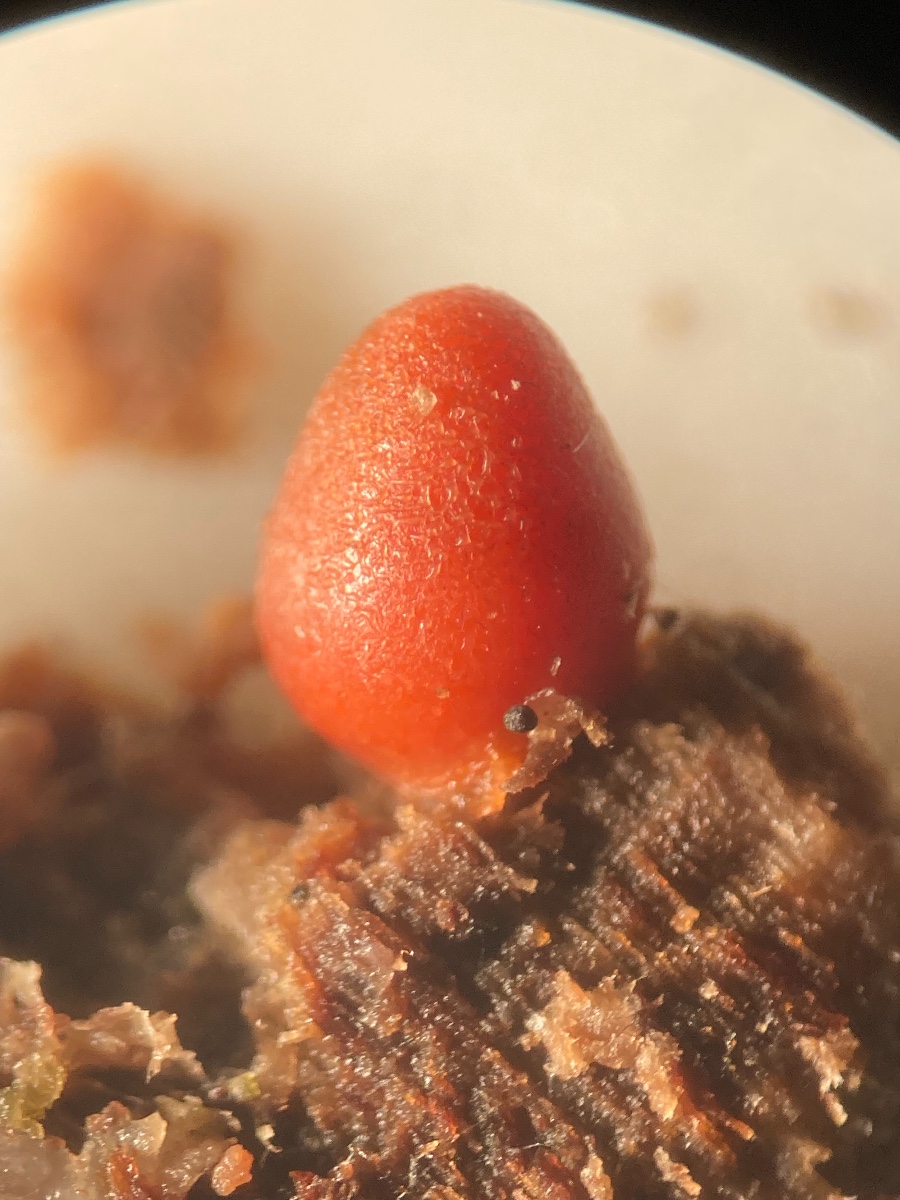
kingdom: Protozoa
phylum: Mycetozoa
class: Myxomycetes
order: Cribrariales
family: Tubiferaceae
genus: Lycogala
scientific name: Lycogala conicum
